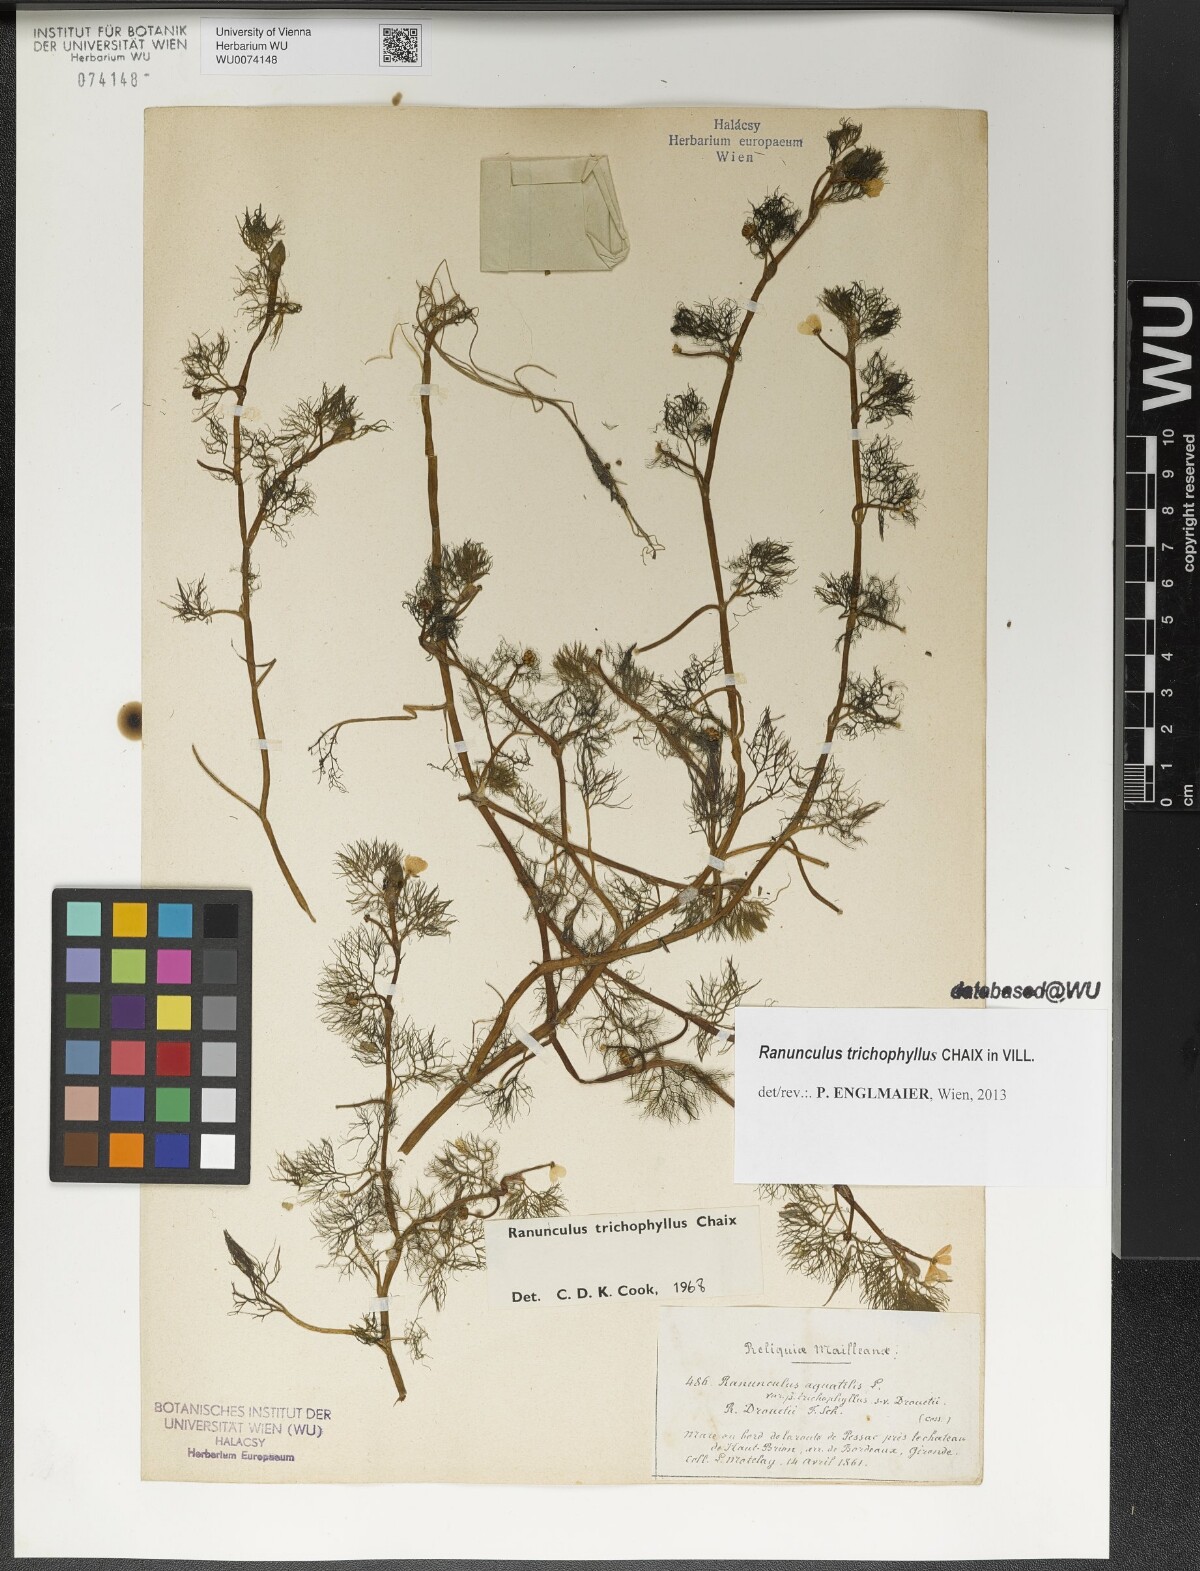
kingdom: Plantae
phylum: Tracheophyta
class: Magnoliopsida
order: Ranunculales
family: Ranunculaceae
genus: Ranunculus
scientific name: Ranunculus trichophyllus
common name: Thread-leaved water-crowfoot
